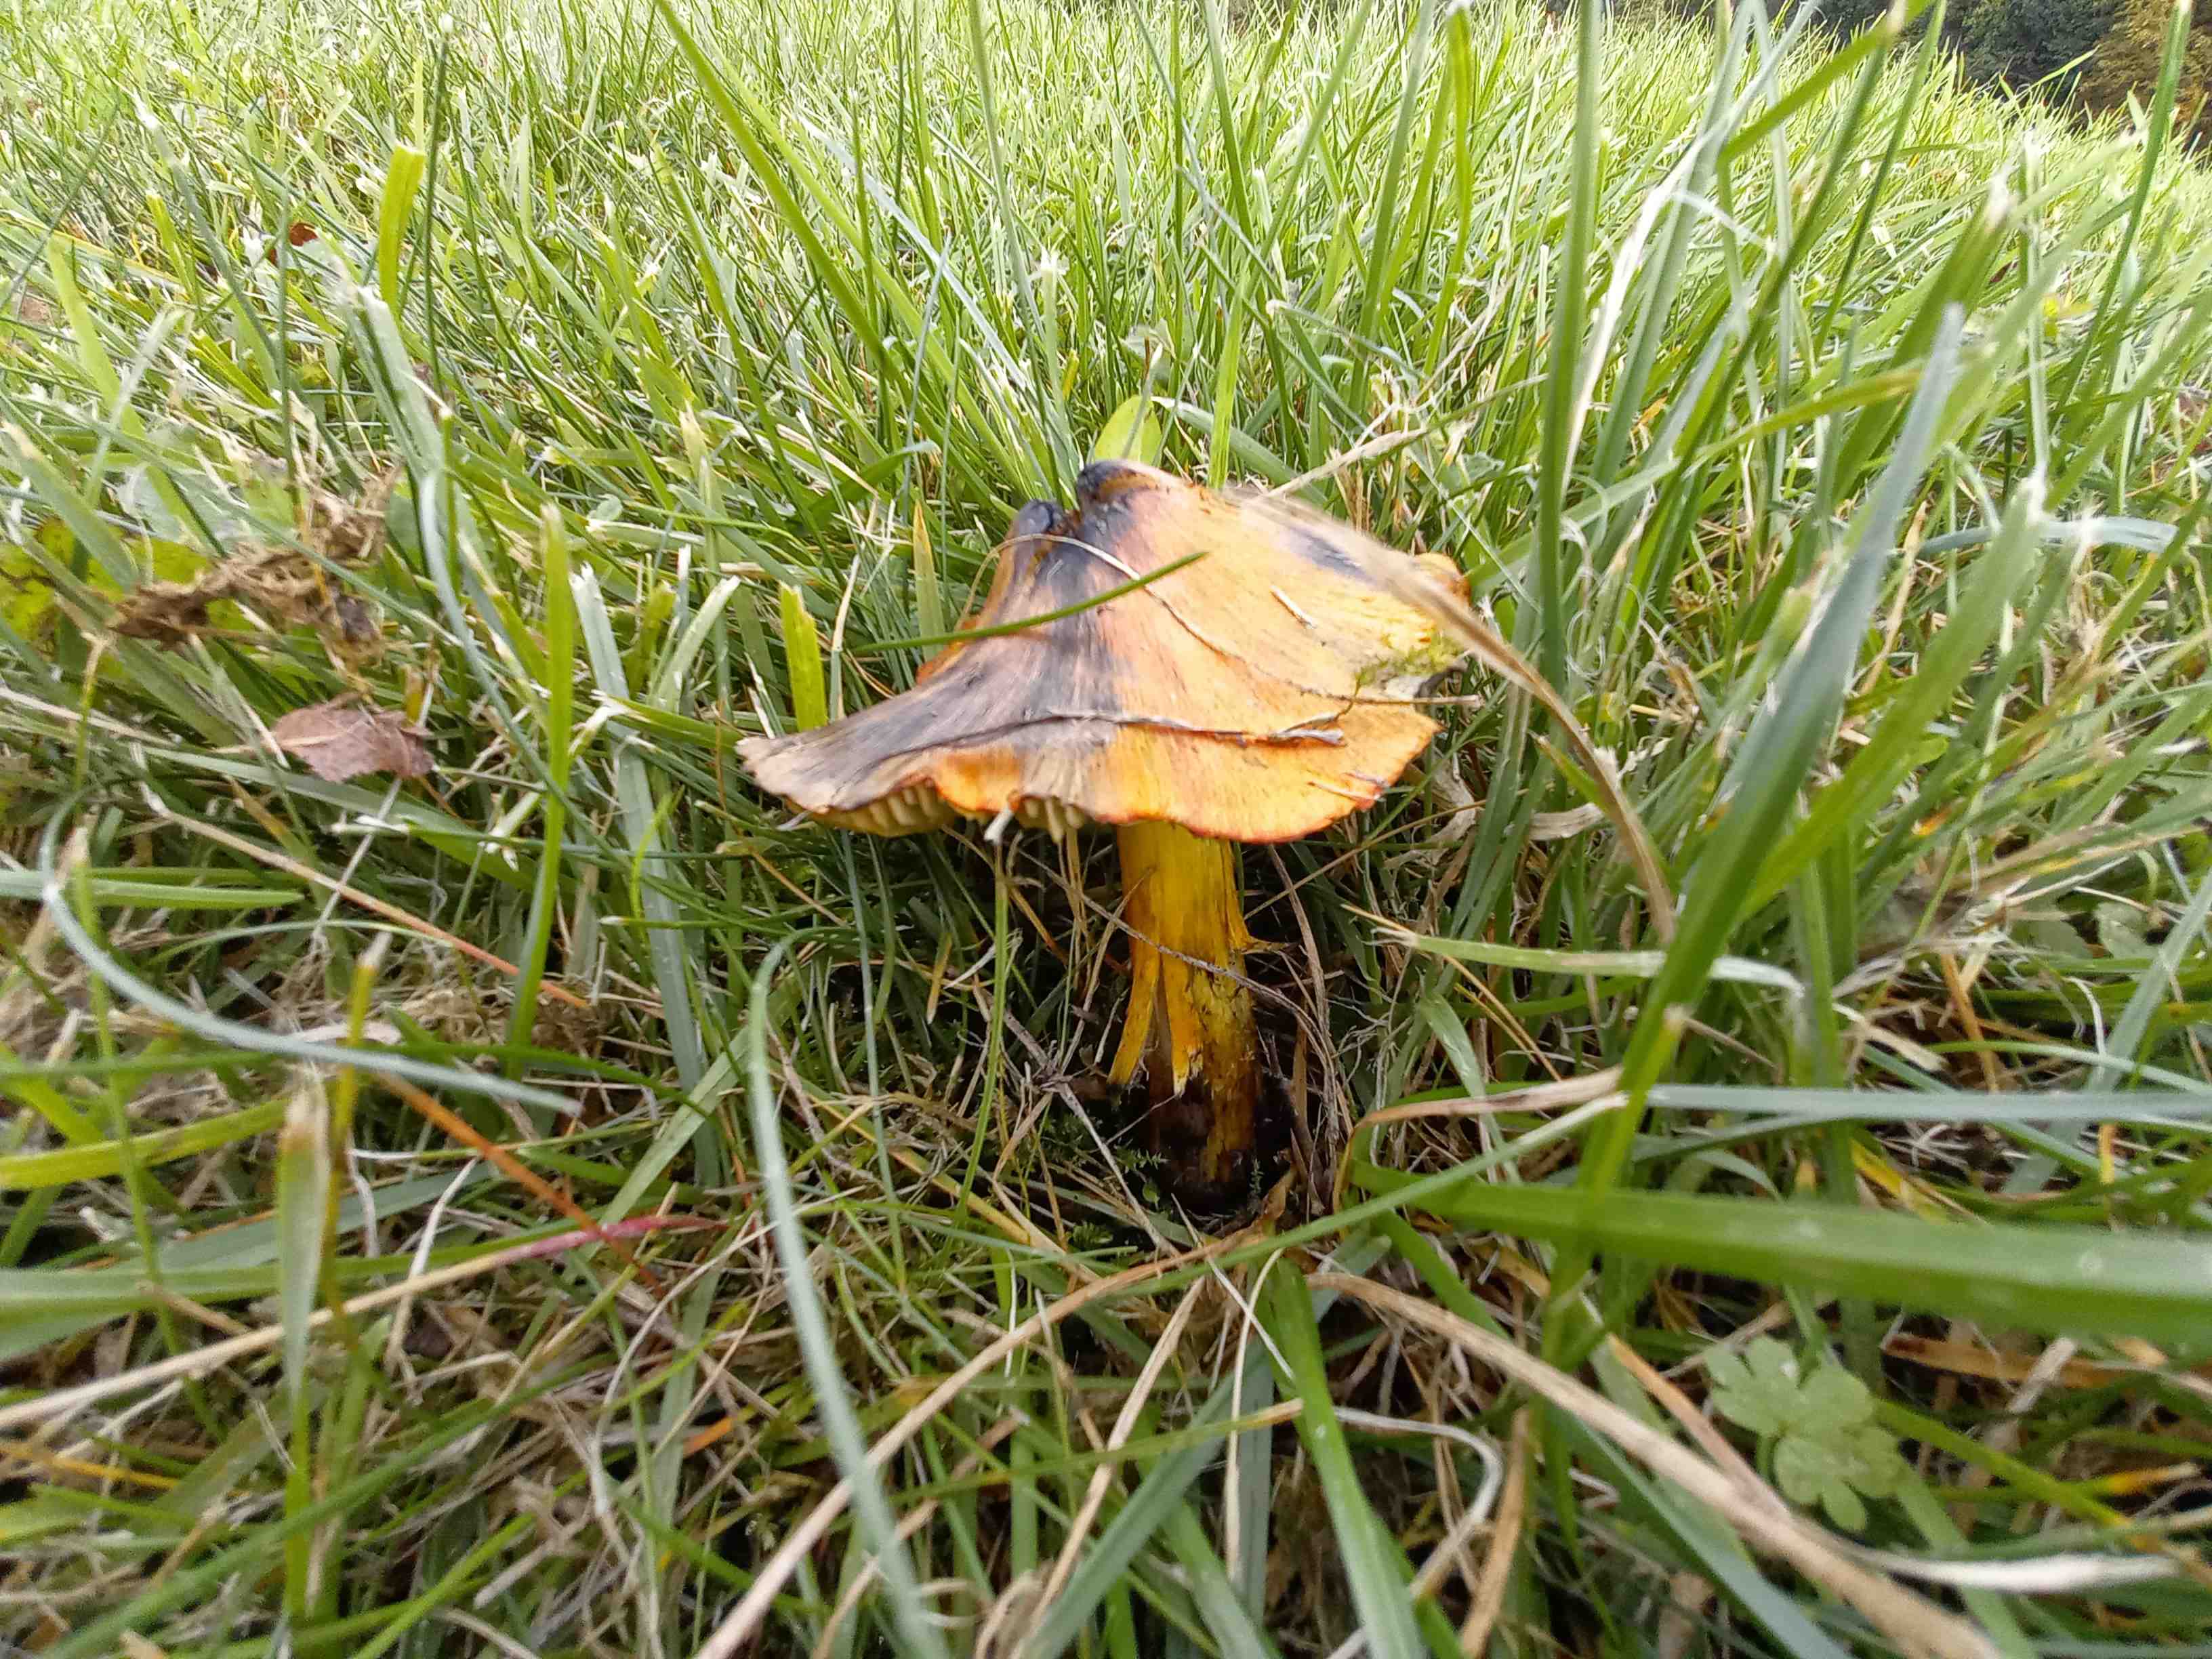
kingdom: Fungi
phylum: Basidiomycota
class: Agaricomycetes
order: Agaricales
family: Hygrophoraceae
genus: Hygrocybe
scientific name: Hygrocybe conica
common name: kegle-vokshat
